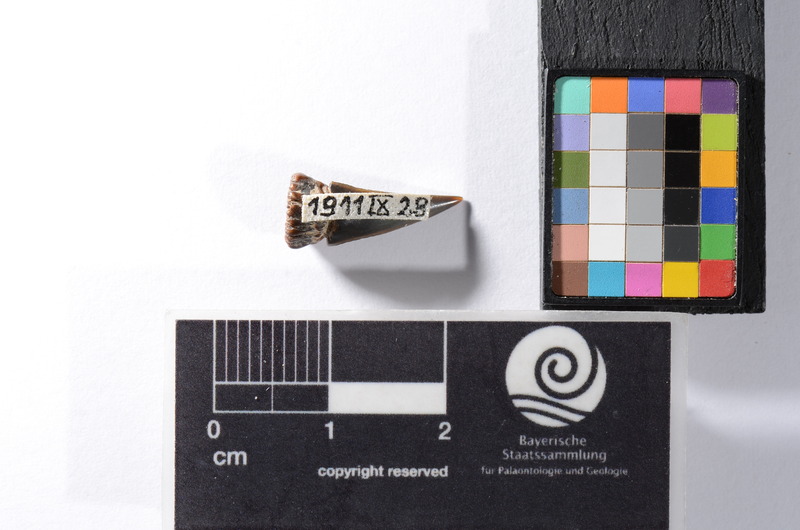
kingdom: Animalia
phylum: Chordata
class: Mammalia
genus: Hydrocyon
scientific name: Hydrocyon
